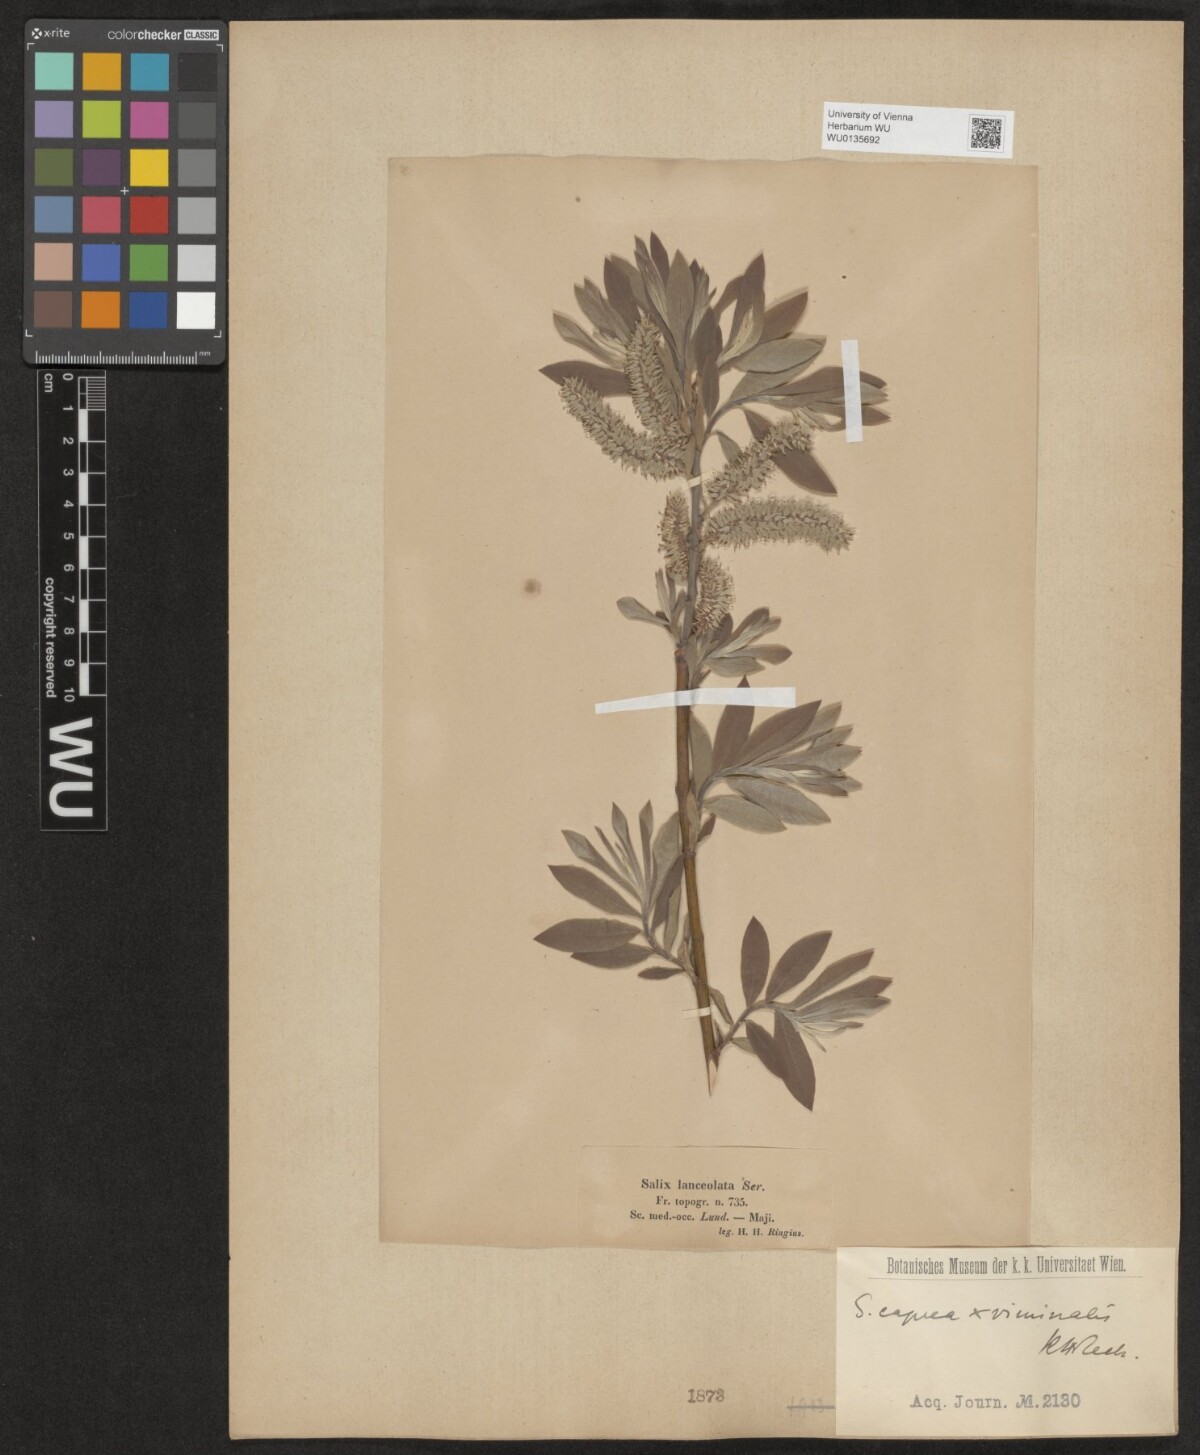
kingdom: Plantae
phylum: Tracheophyta
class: Magnoliopsida
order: Malpighiales
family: Salicaceae
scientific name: Salicaceae
